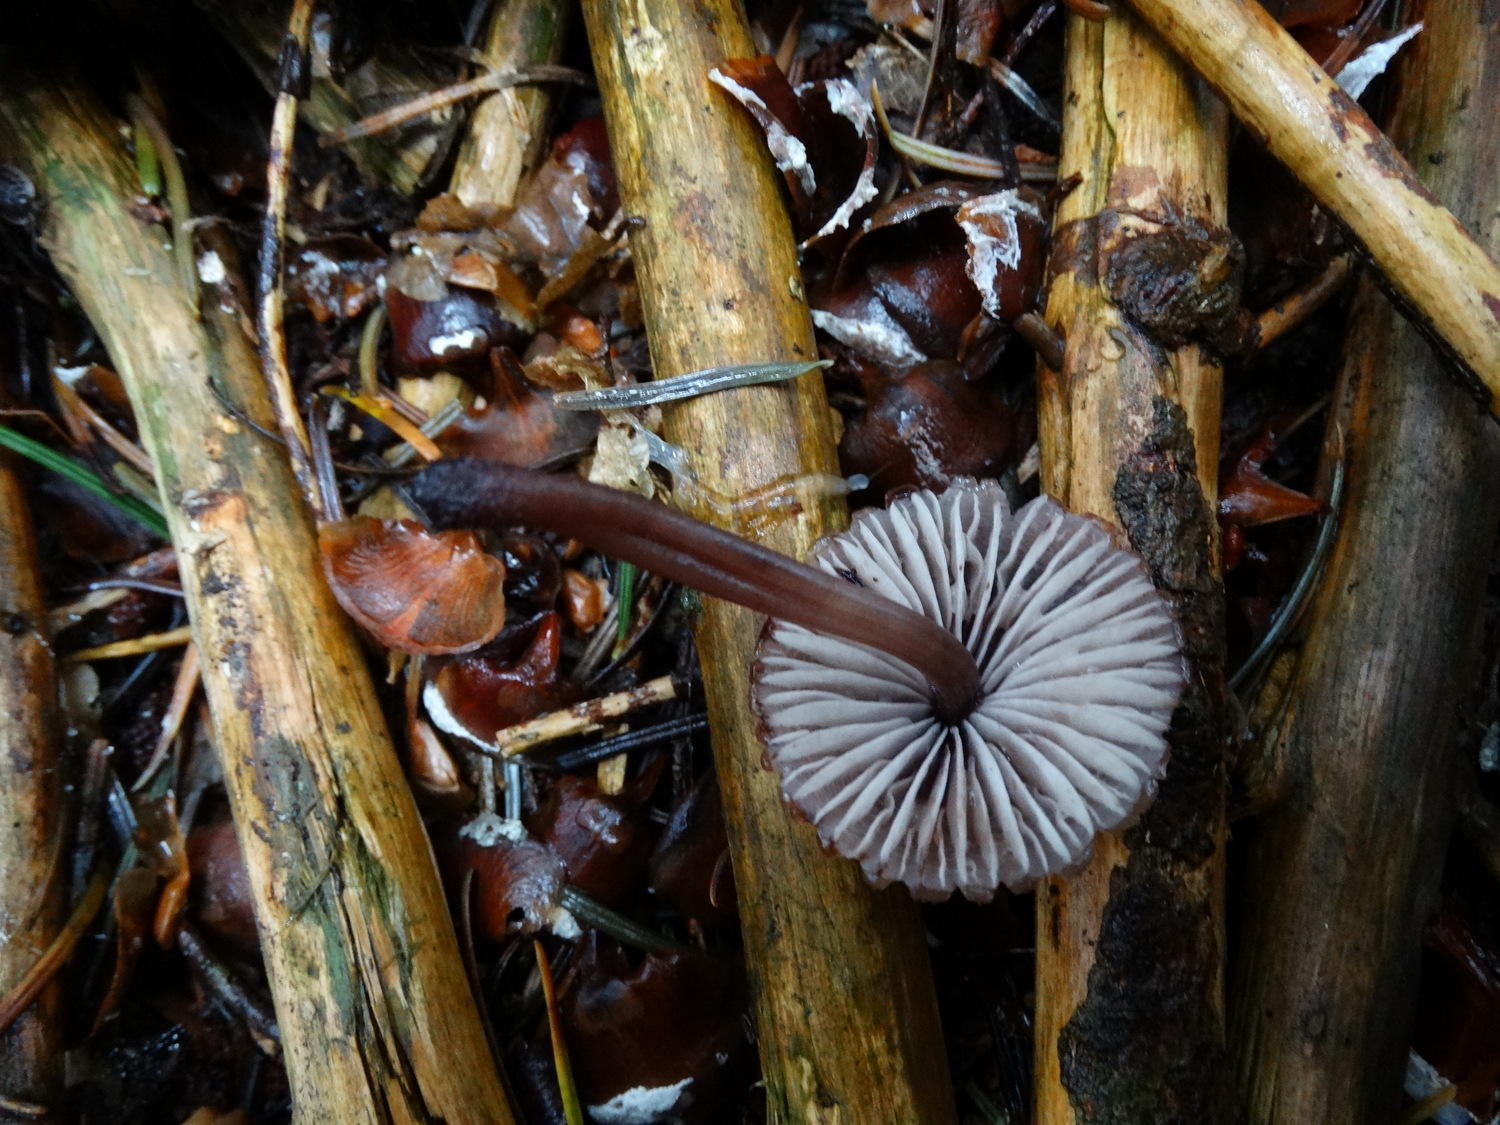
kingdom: Fungi
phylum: Basidiomycota
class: Agaricomycetes
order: Agaricales
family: Mycenaceae
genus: Mycena
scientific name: Mycena haematopus
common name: blødende huesvamp
